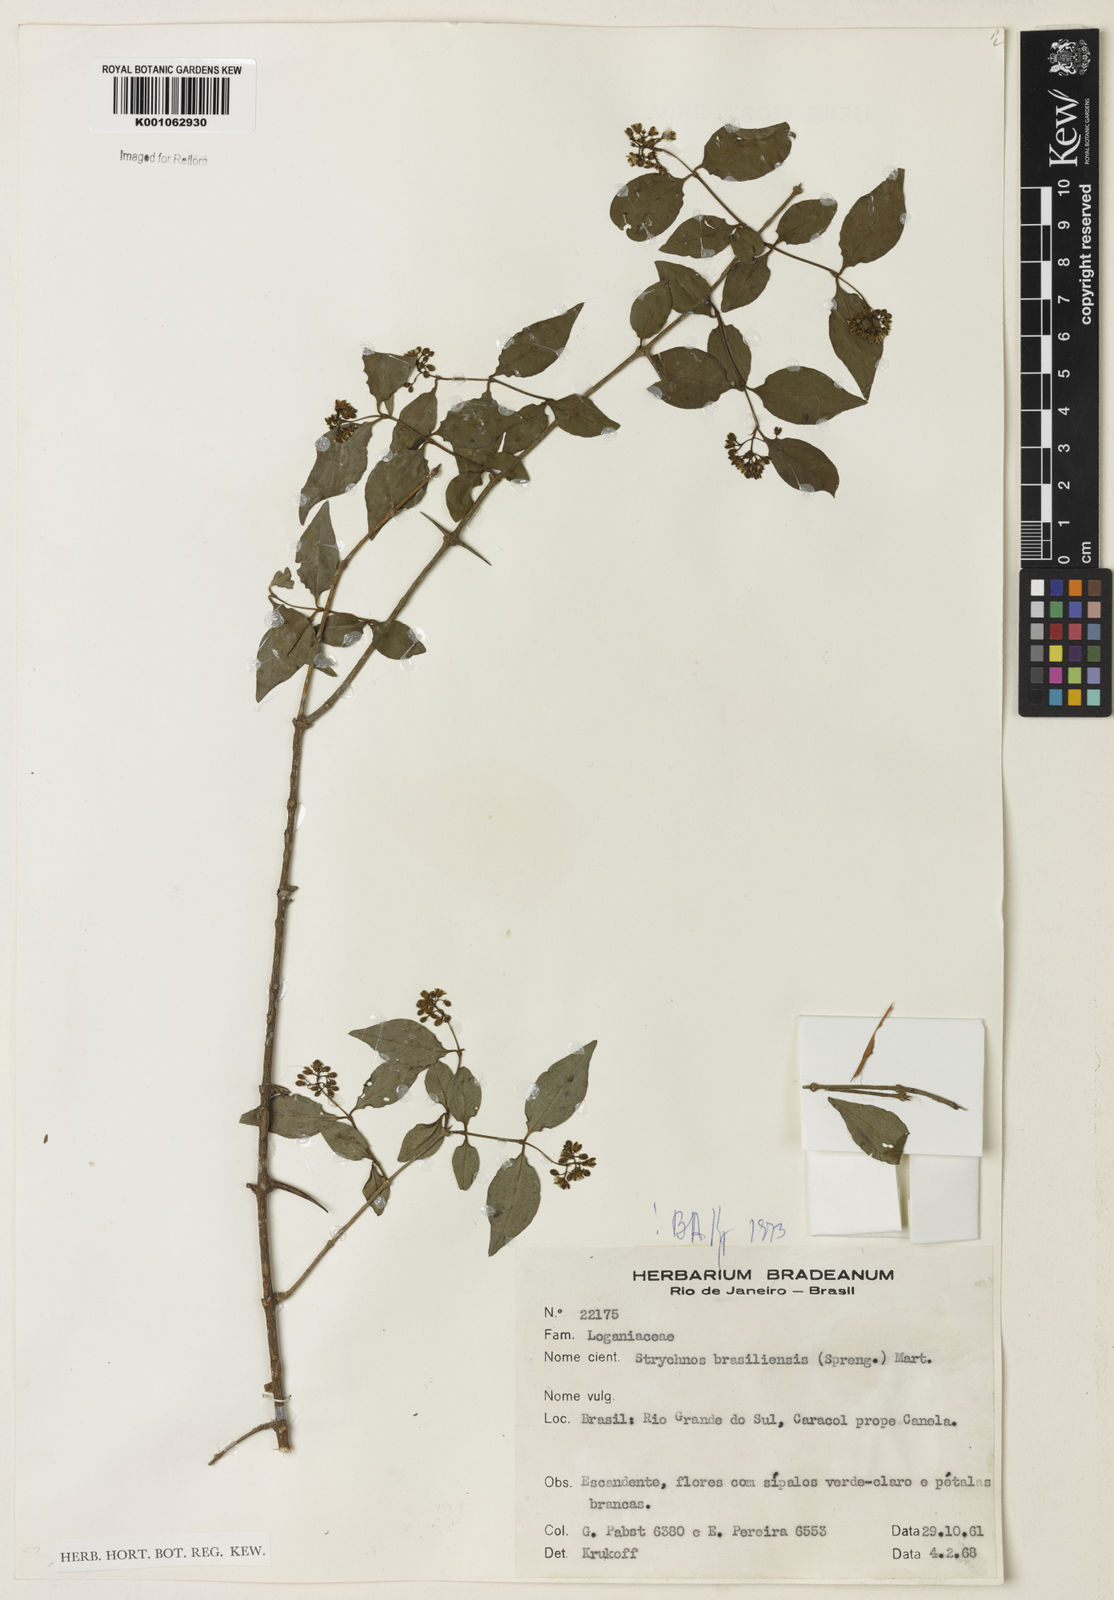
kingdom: Plantae
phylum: Tracheophyta
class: Magnoliopsida
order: Gentianales
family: Loganiaceae
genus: Strychnos
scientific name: Strychnos brasiliensis
